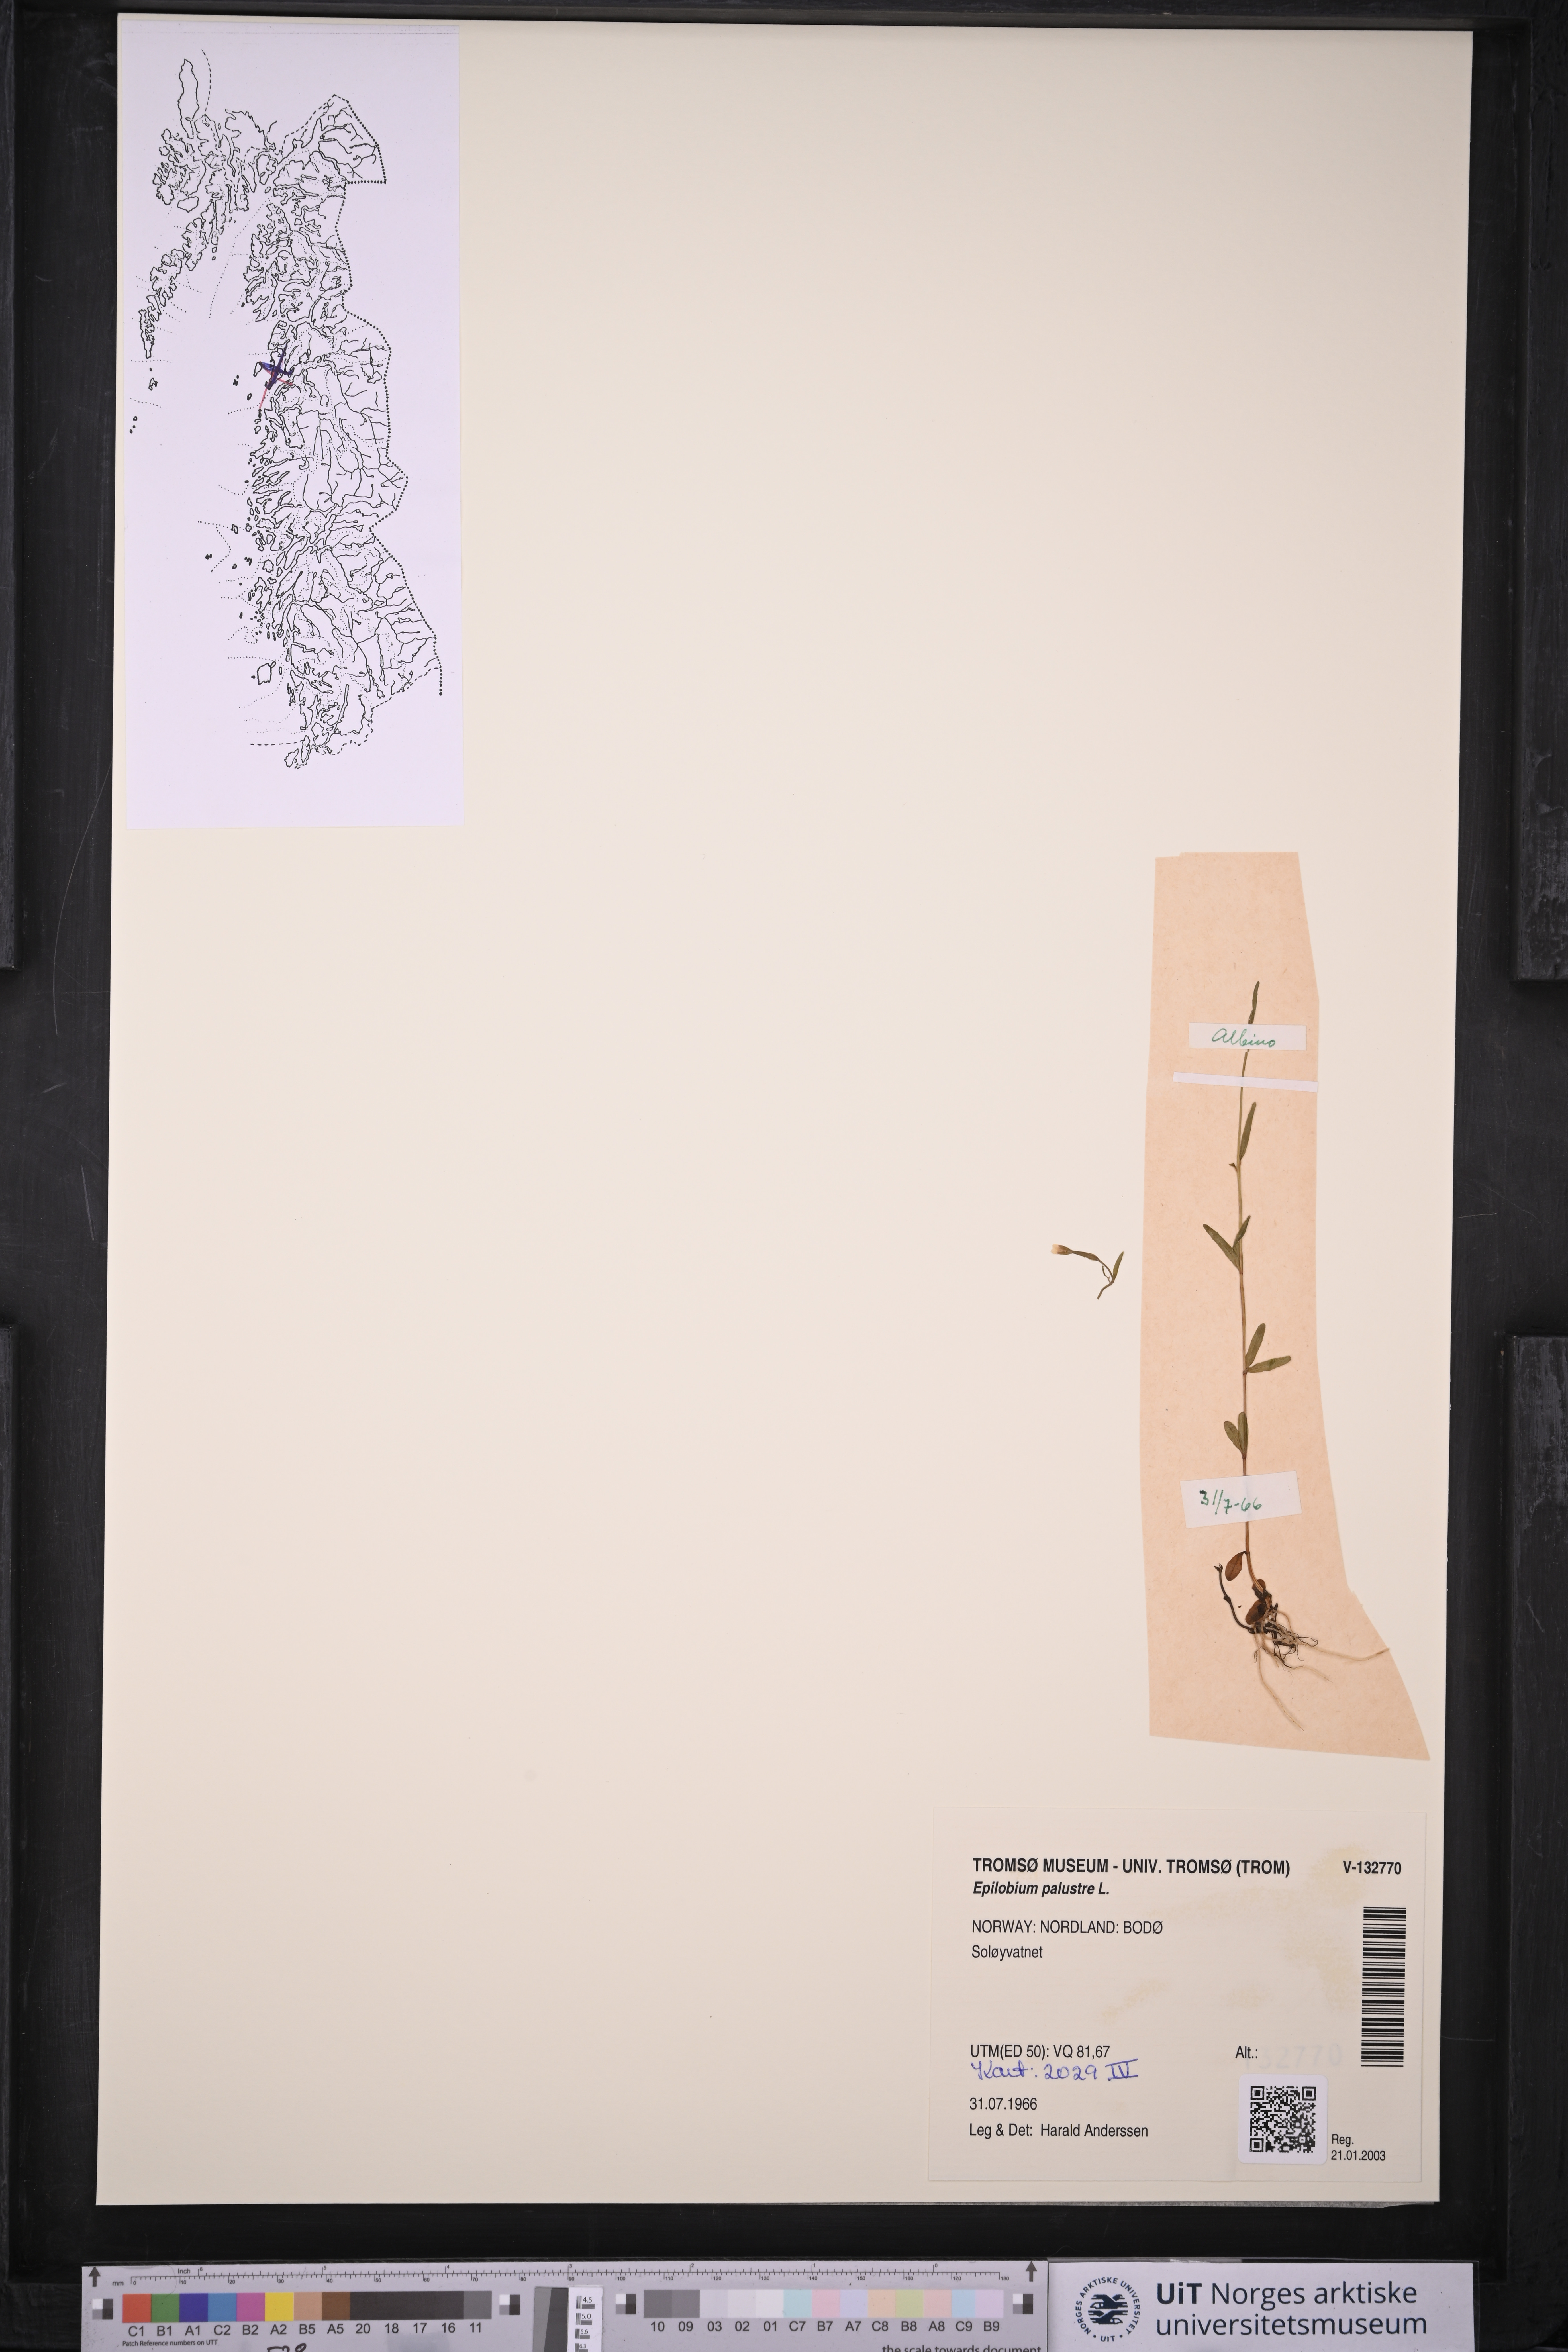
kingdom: Plantae
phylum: Tracheophyta
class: Magnoliopsida
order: Myrtales
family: Onagraceae
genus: Epilobium
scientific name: Epilobium palustre
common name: Marsh willowherb
